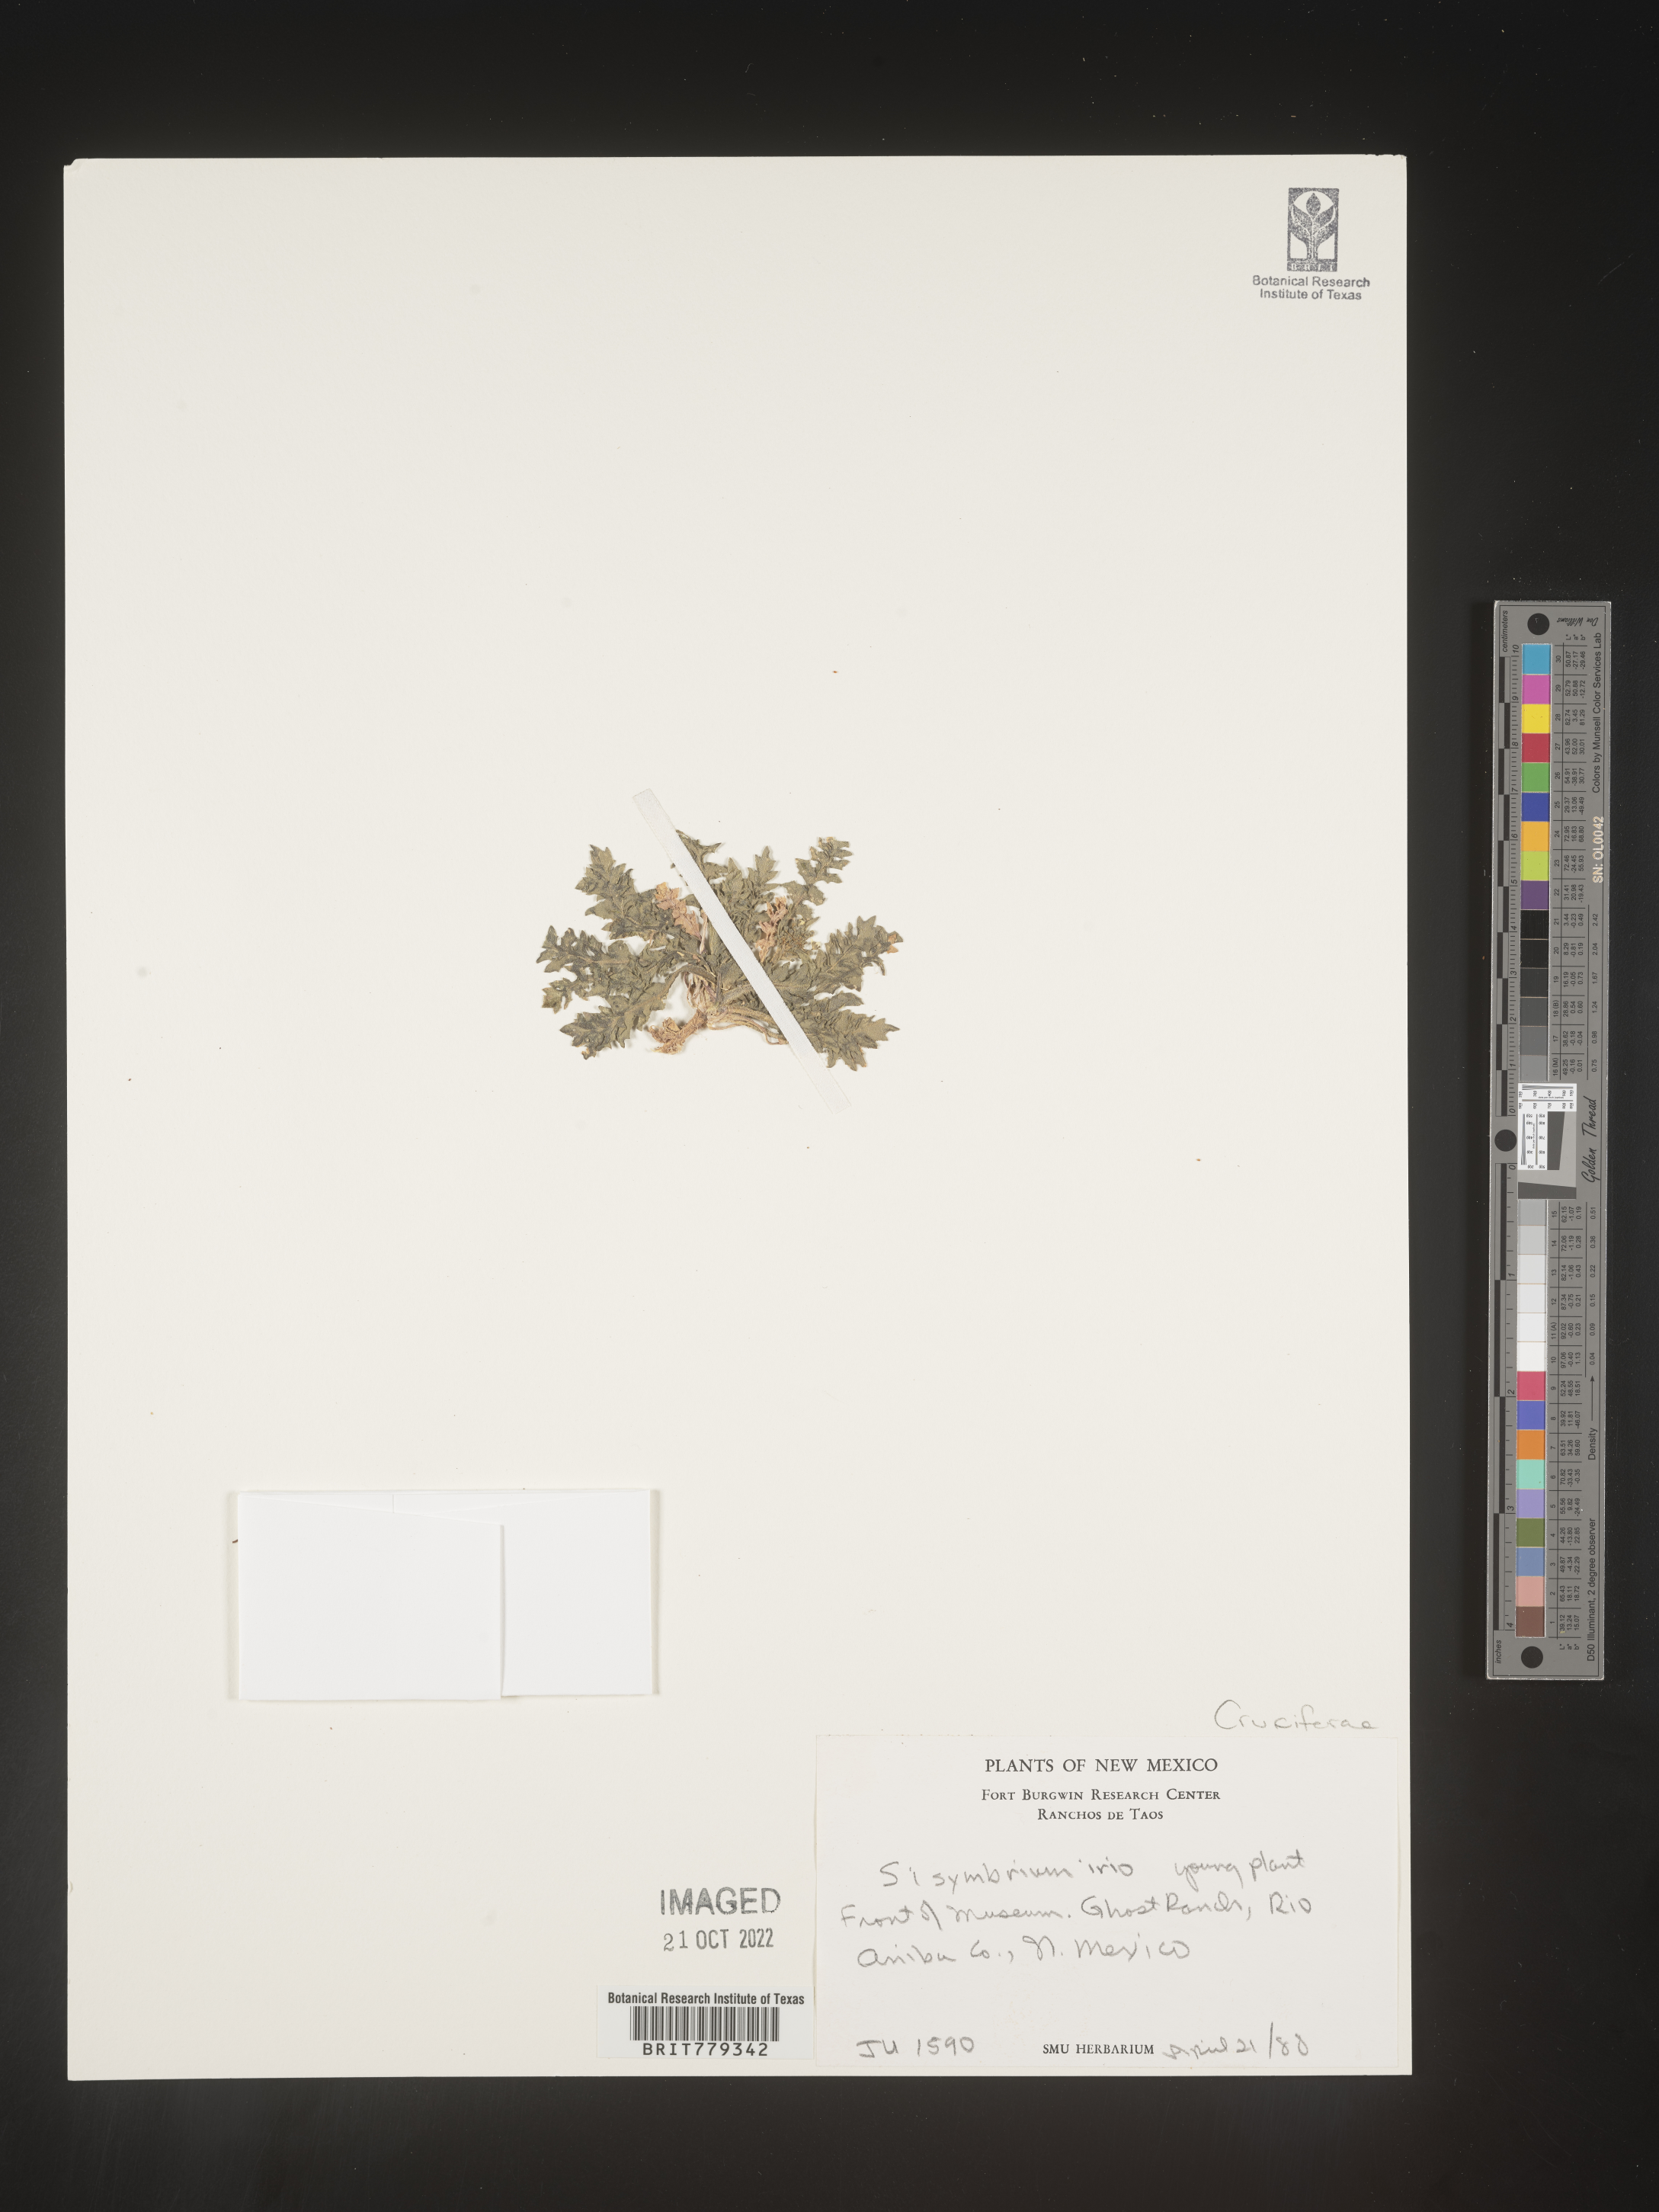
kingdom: Plantae
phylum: Tracheophyta
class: Magnoliopsida
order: Brassicales
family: Brassicaceae
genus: Sisymbrium
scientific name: Sisymbrium
